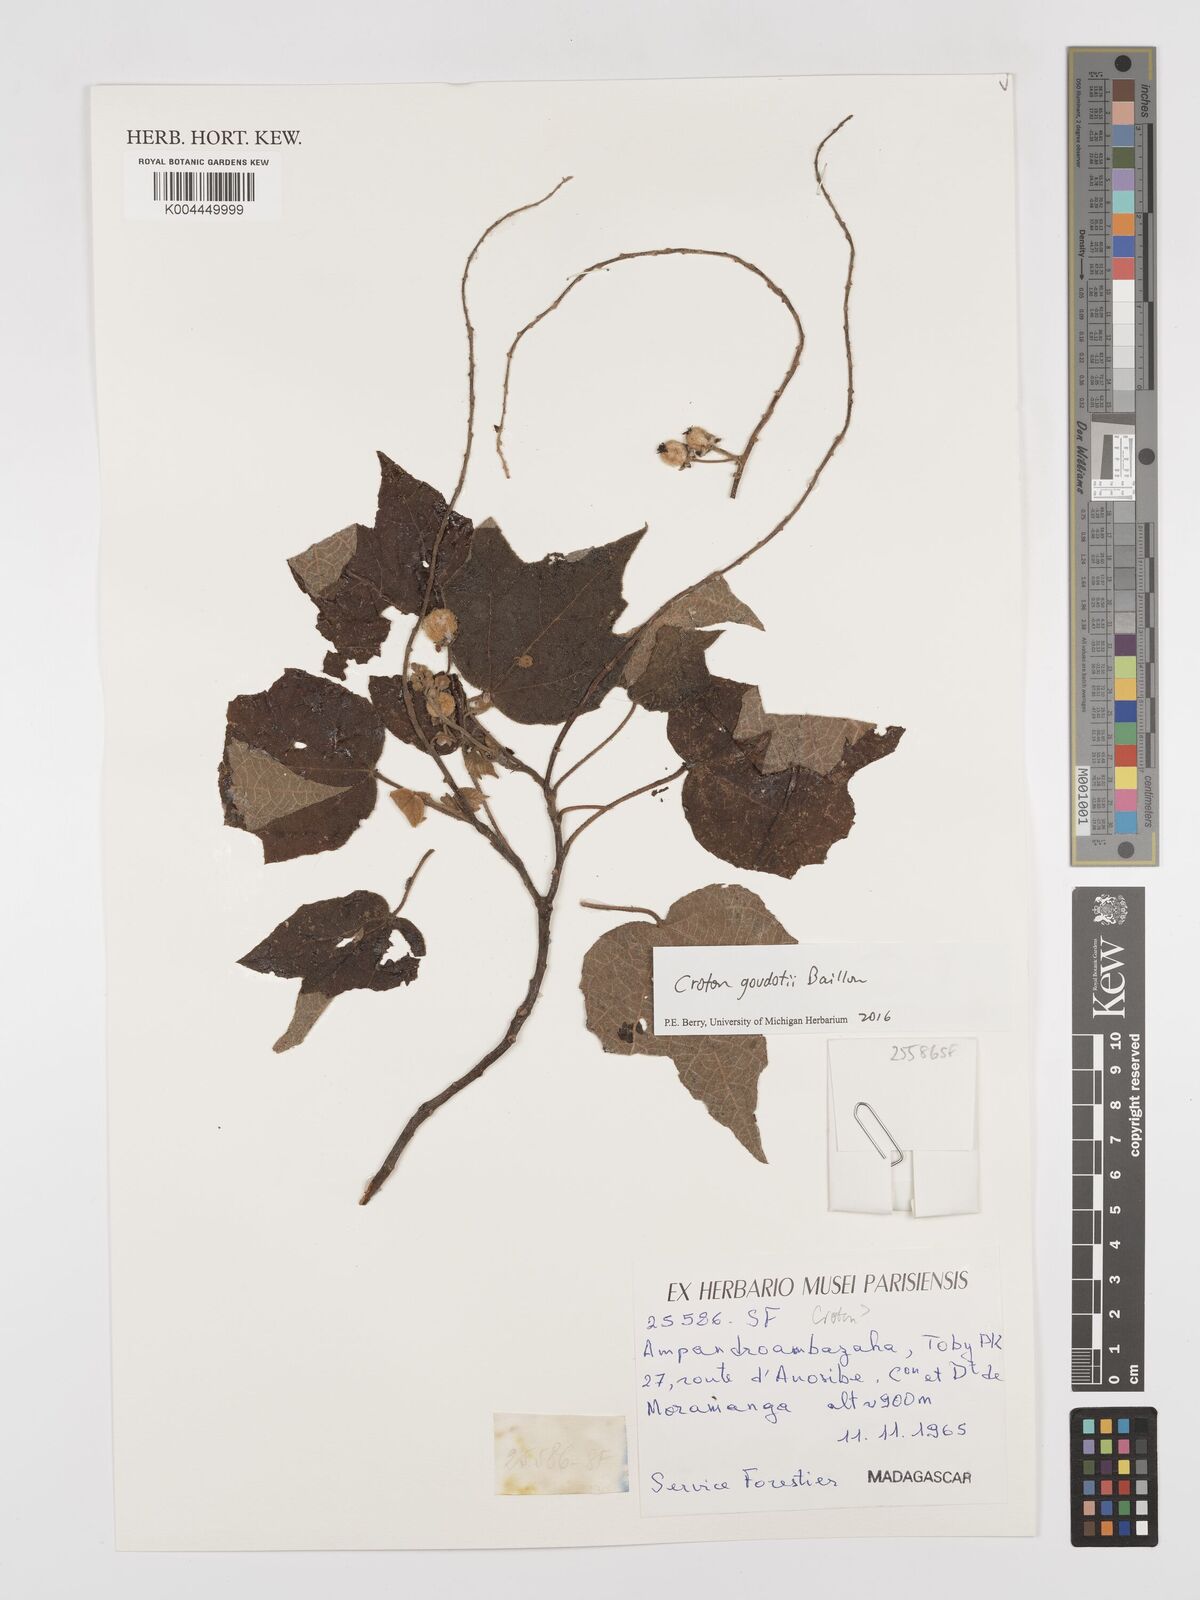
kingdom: Plantae
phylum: Tracheophyta
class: Magnoliopsida
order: Malpighiales
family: Euphorbiaceae
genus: Croton
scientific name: Croton goudotii
